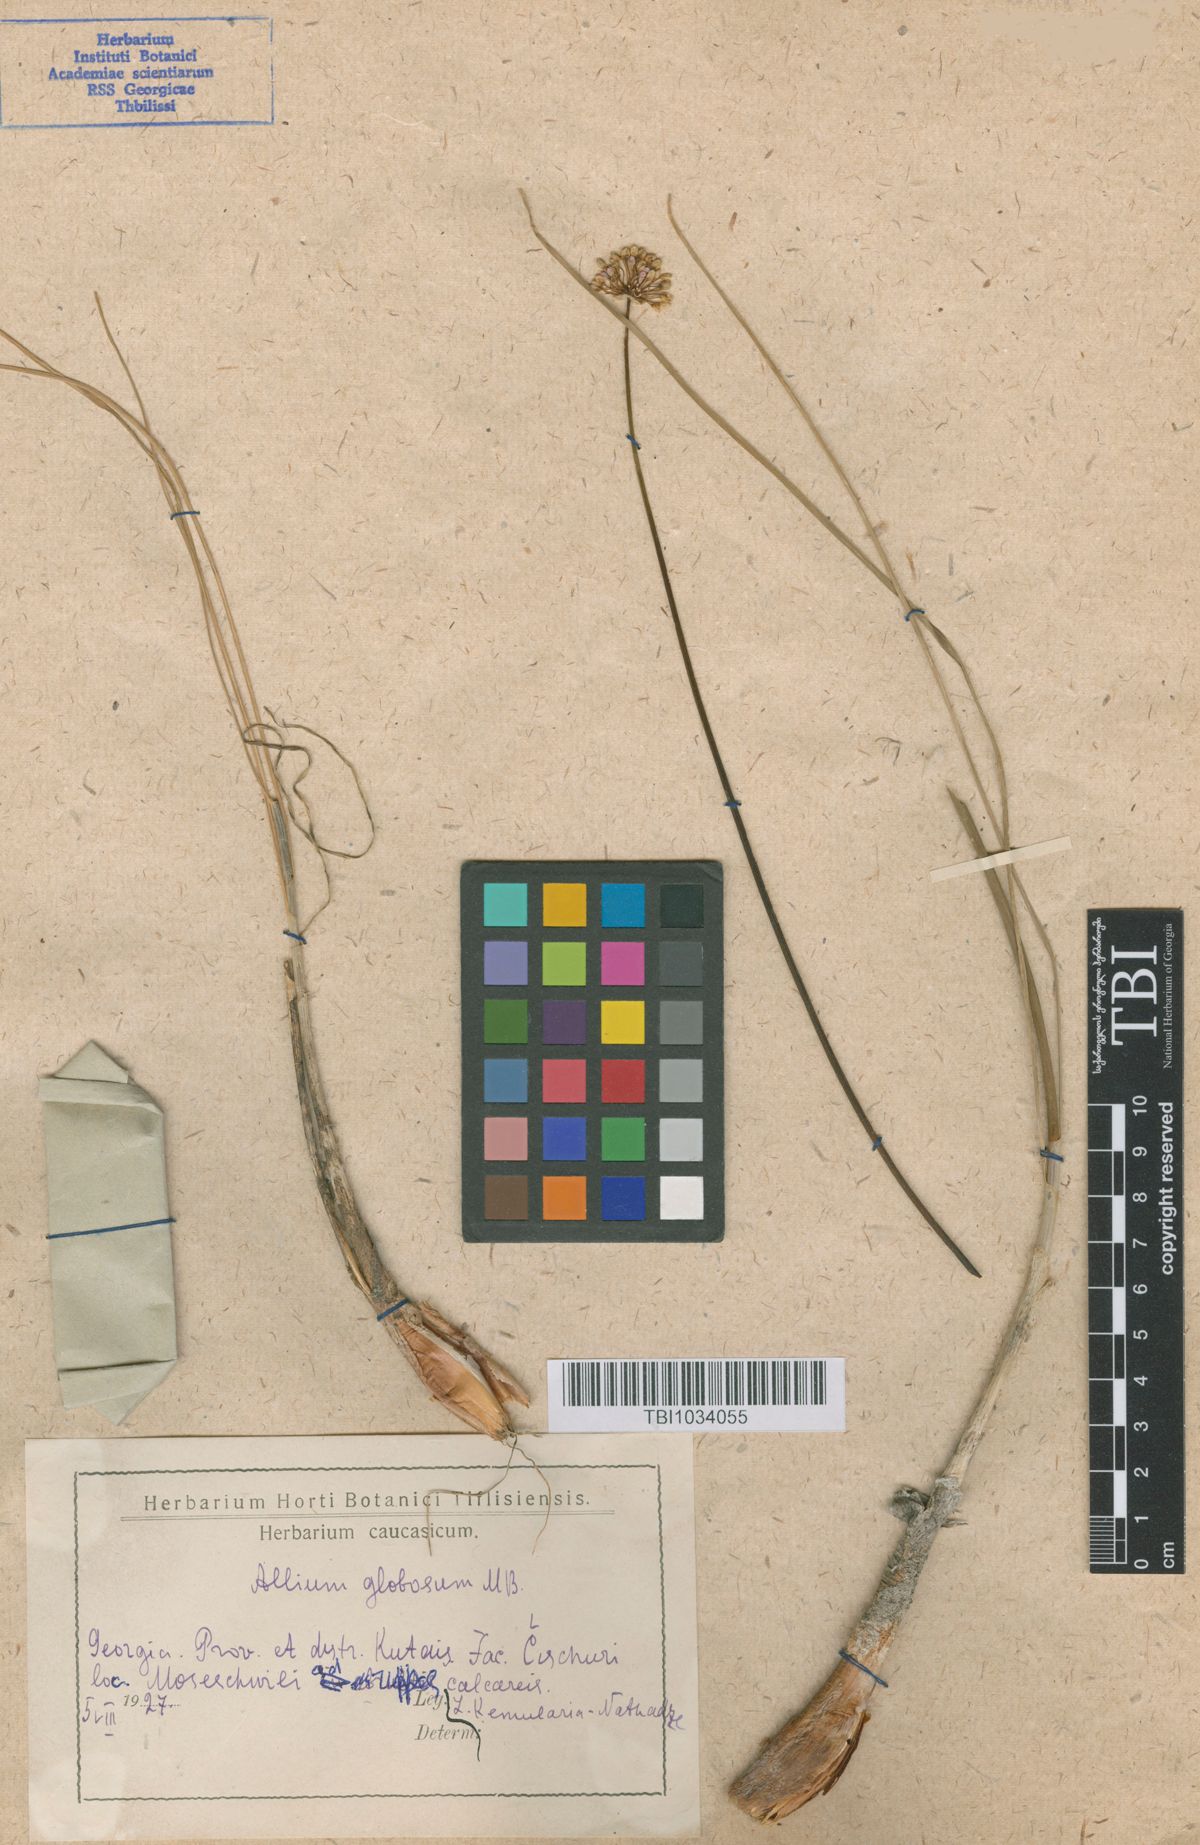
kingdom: Plantae
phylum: Tracheophyta
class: Liliopsida
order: Asparagales
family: Amaryllidaceae
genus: Allium
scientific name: Allium saxatile
